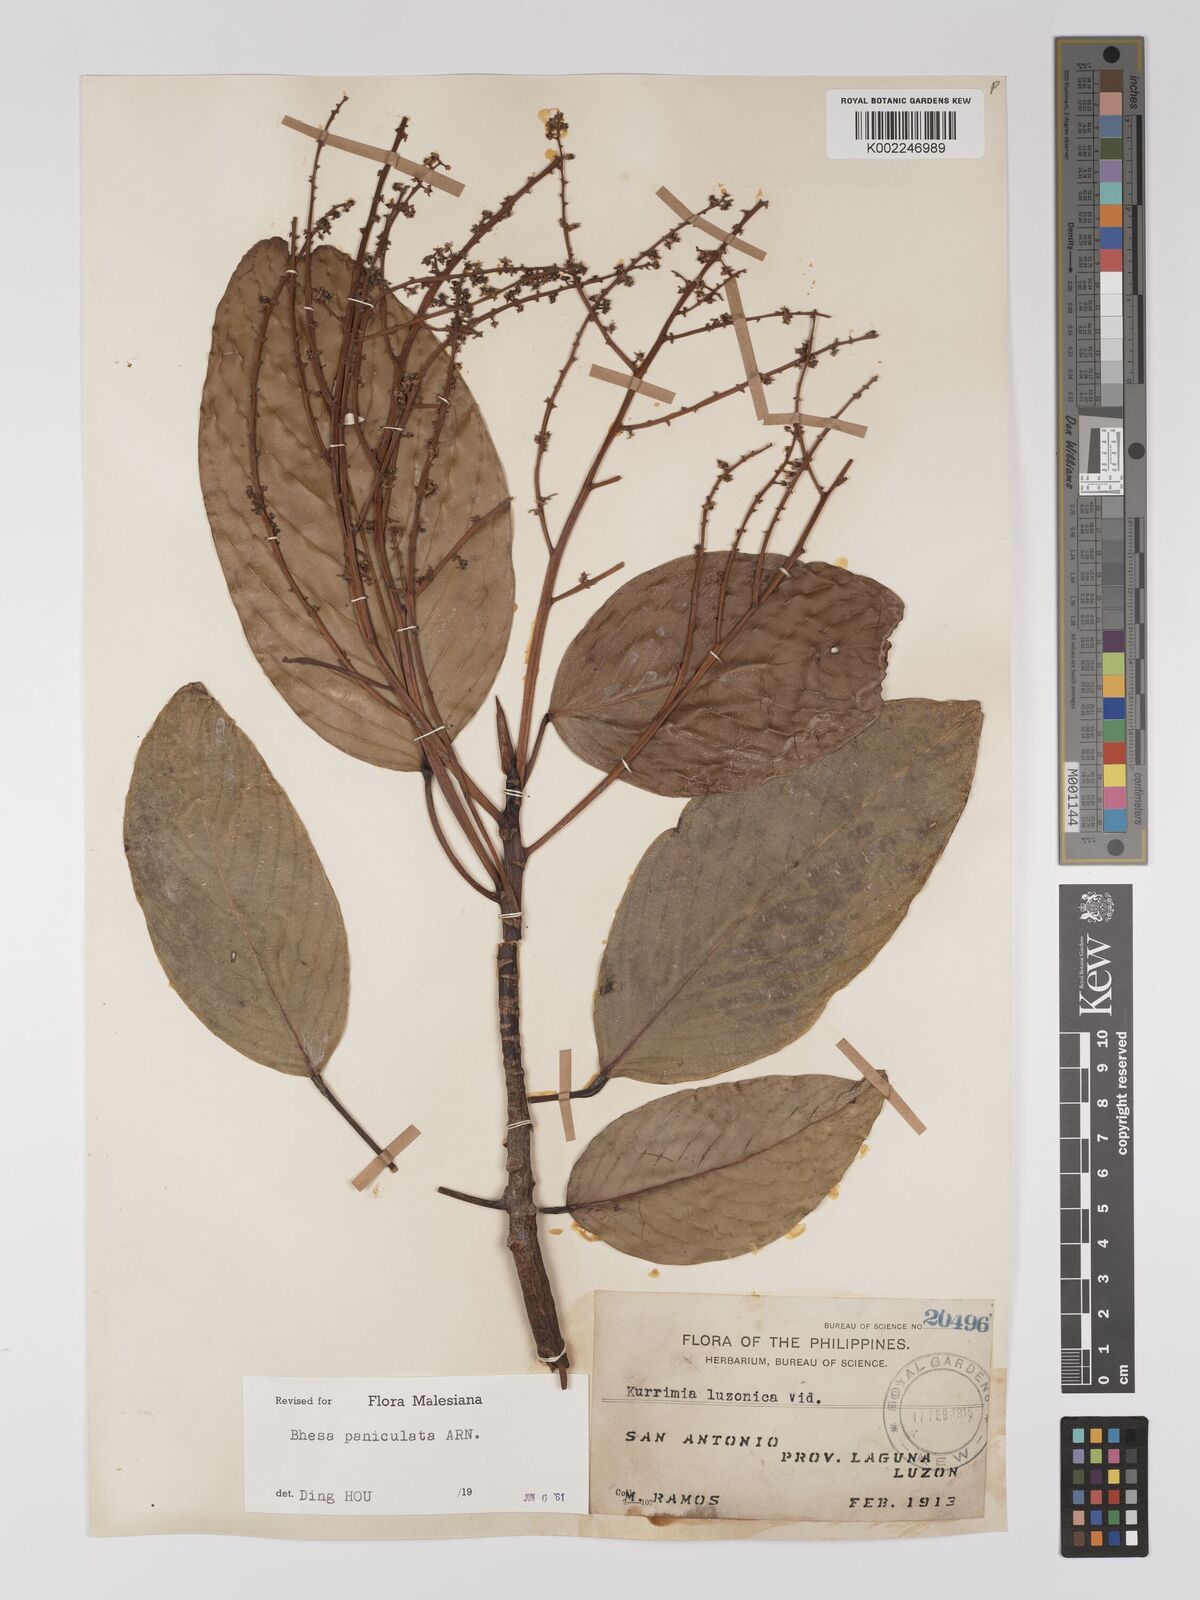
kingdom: Plantae
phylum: Tracheophyta
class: Magnoliopsida
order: Malpighiales
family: Centroplacaceae
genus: Bhesa
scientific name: Bhesa paniculata
